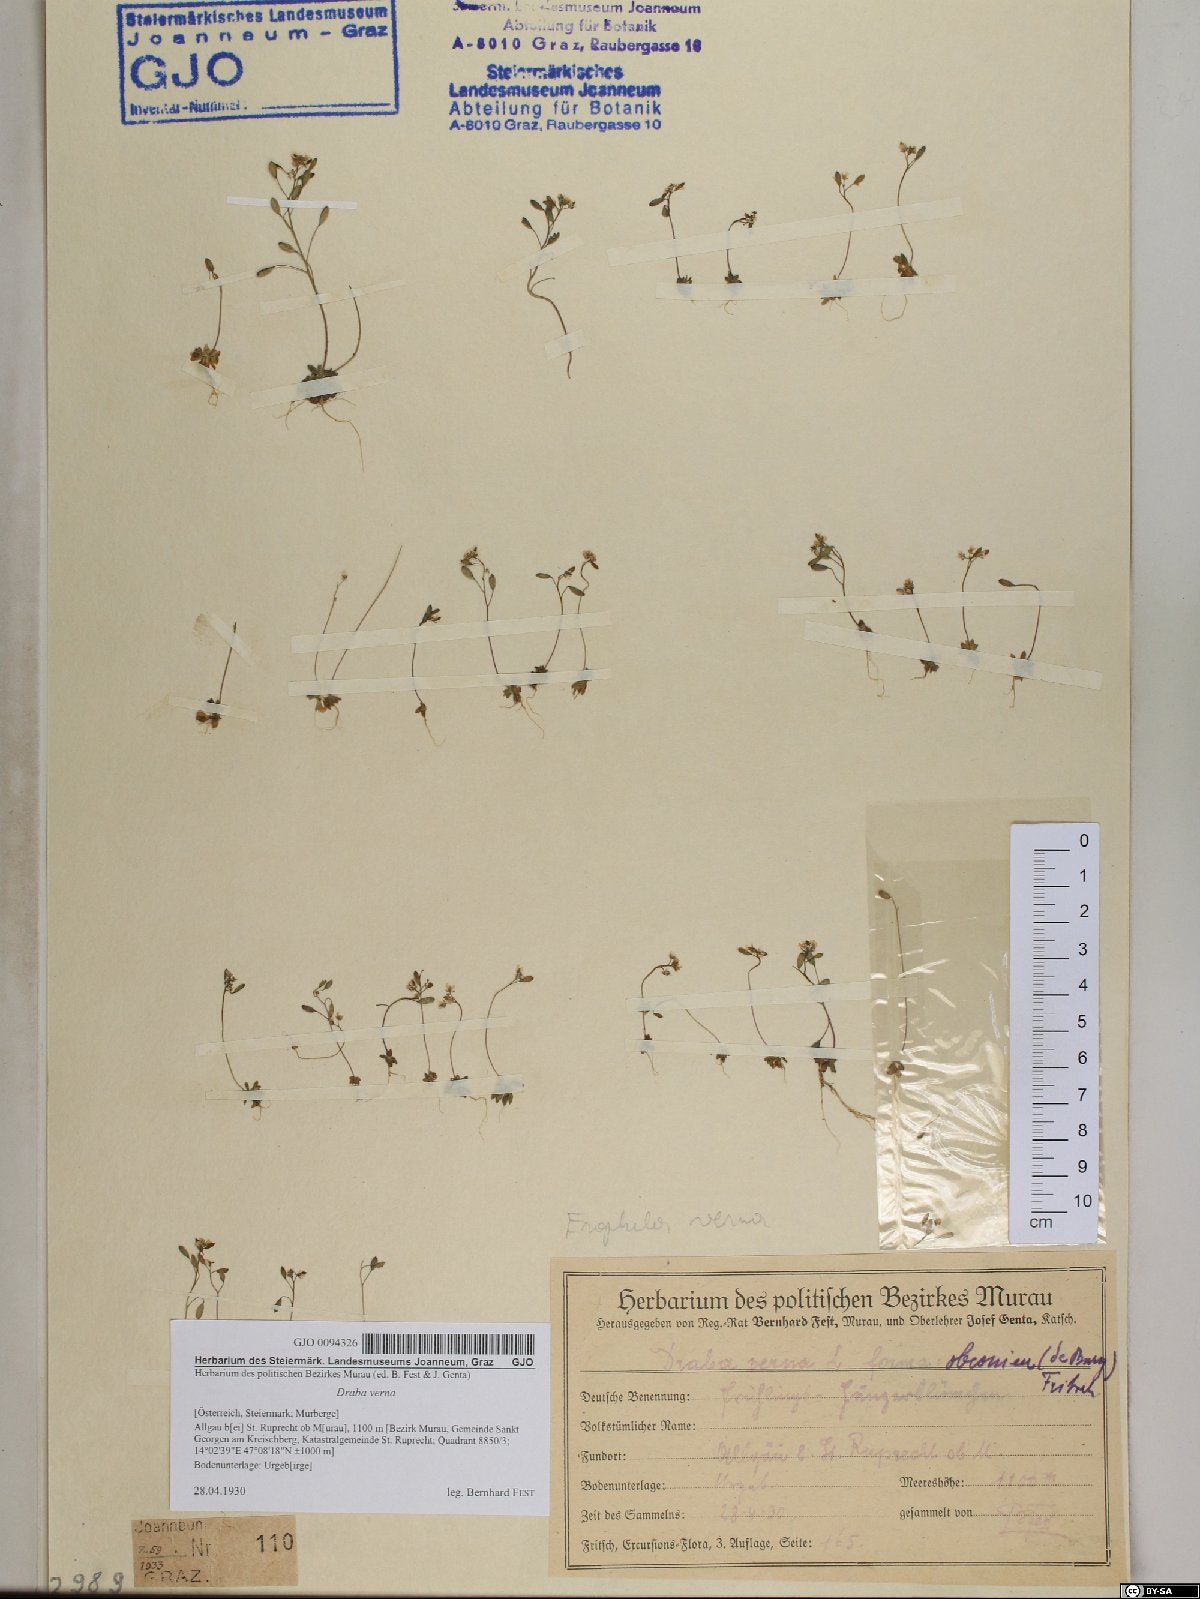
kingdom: Plantae
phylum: Tracheophyta
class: Magnoliopsida
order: Brassicales
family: Brassicaceae
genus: Draba
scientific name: Draba verna
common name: Spring draba
